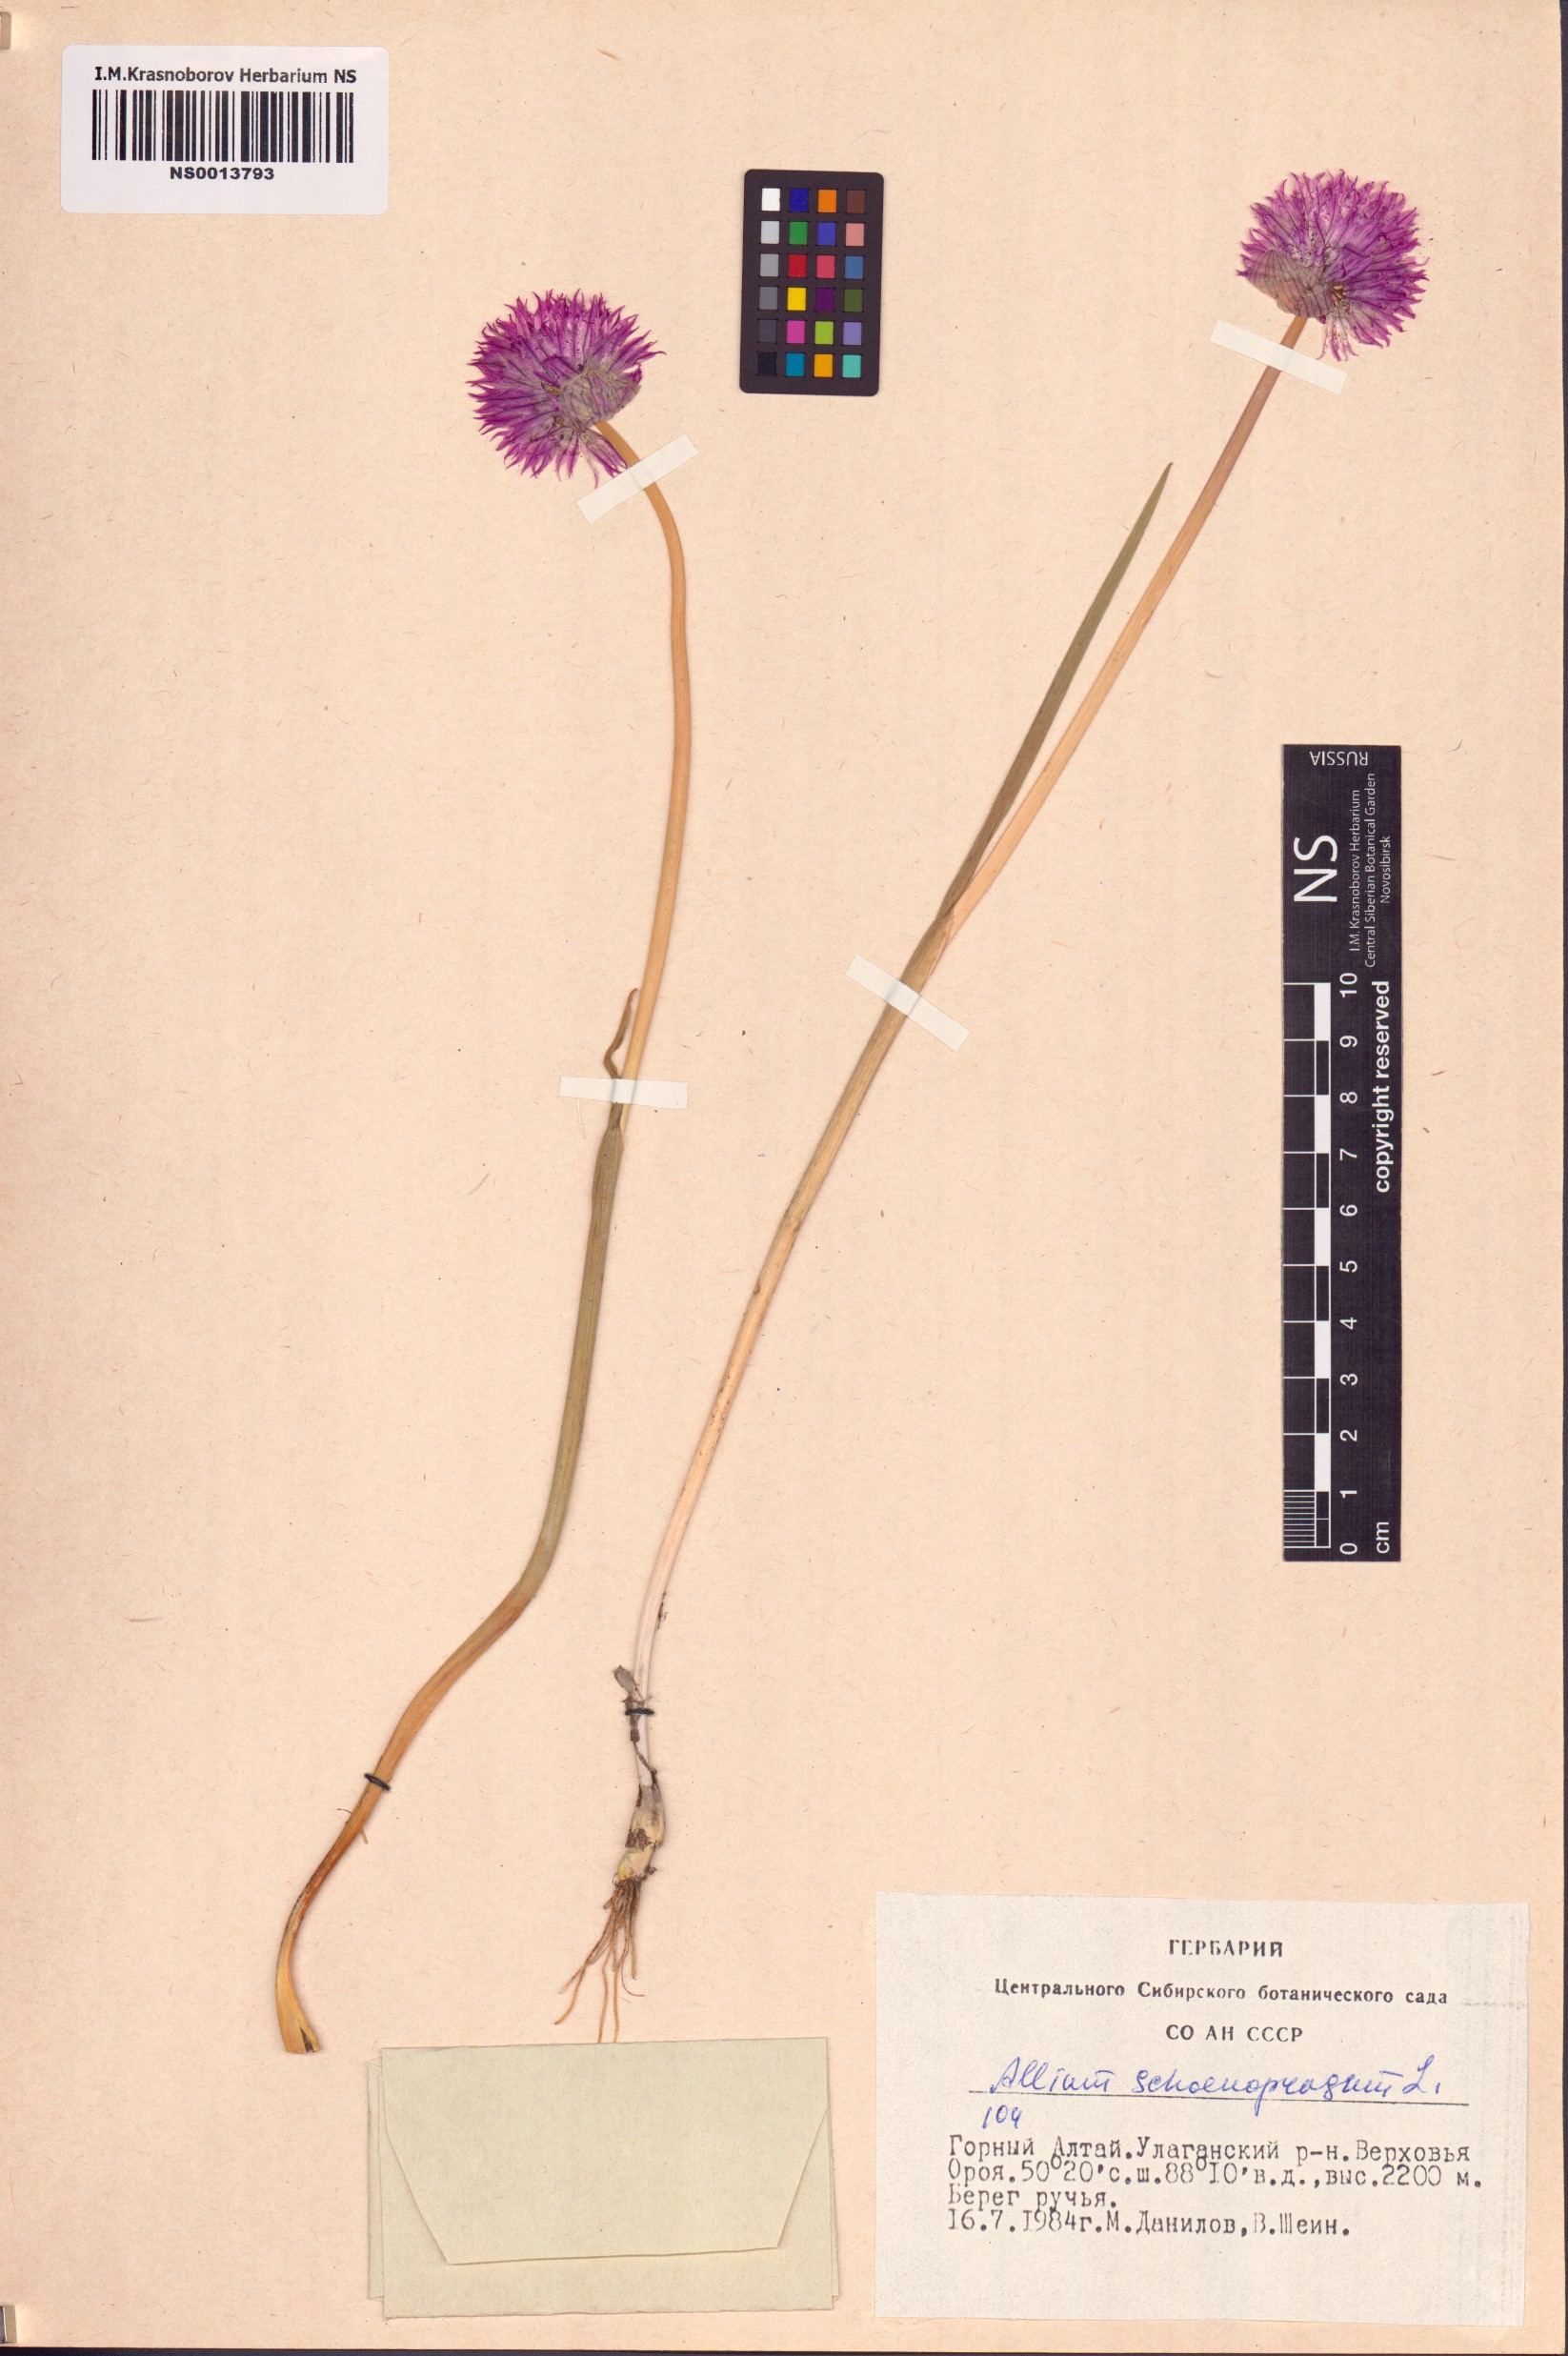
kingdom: Plantae
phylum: Tracheophyta
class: Liliopsida
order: Asparagales
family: Amaryllidaceae
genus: Allium
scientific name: Allium schoenoprasum
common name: Chives
